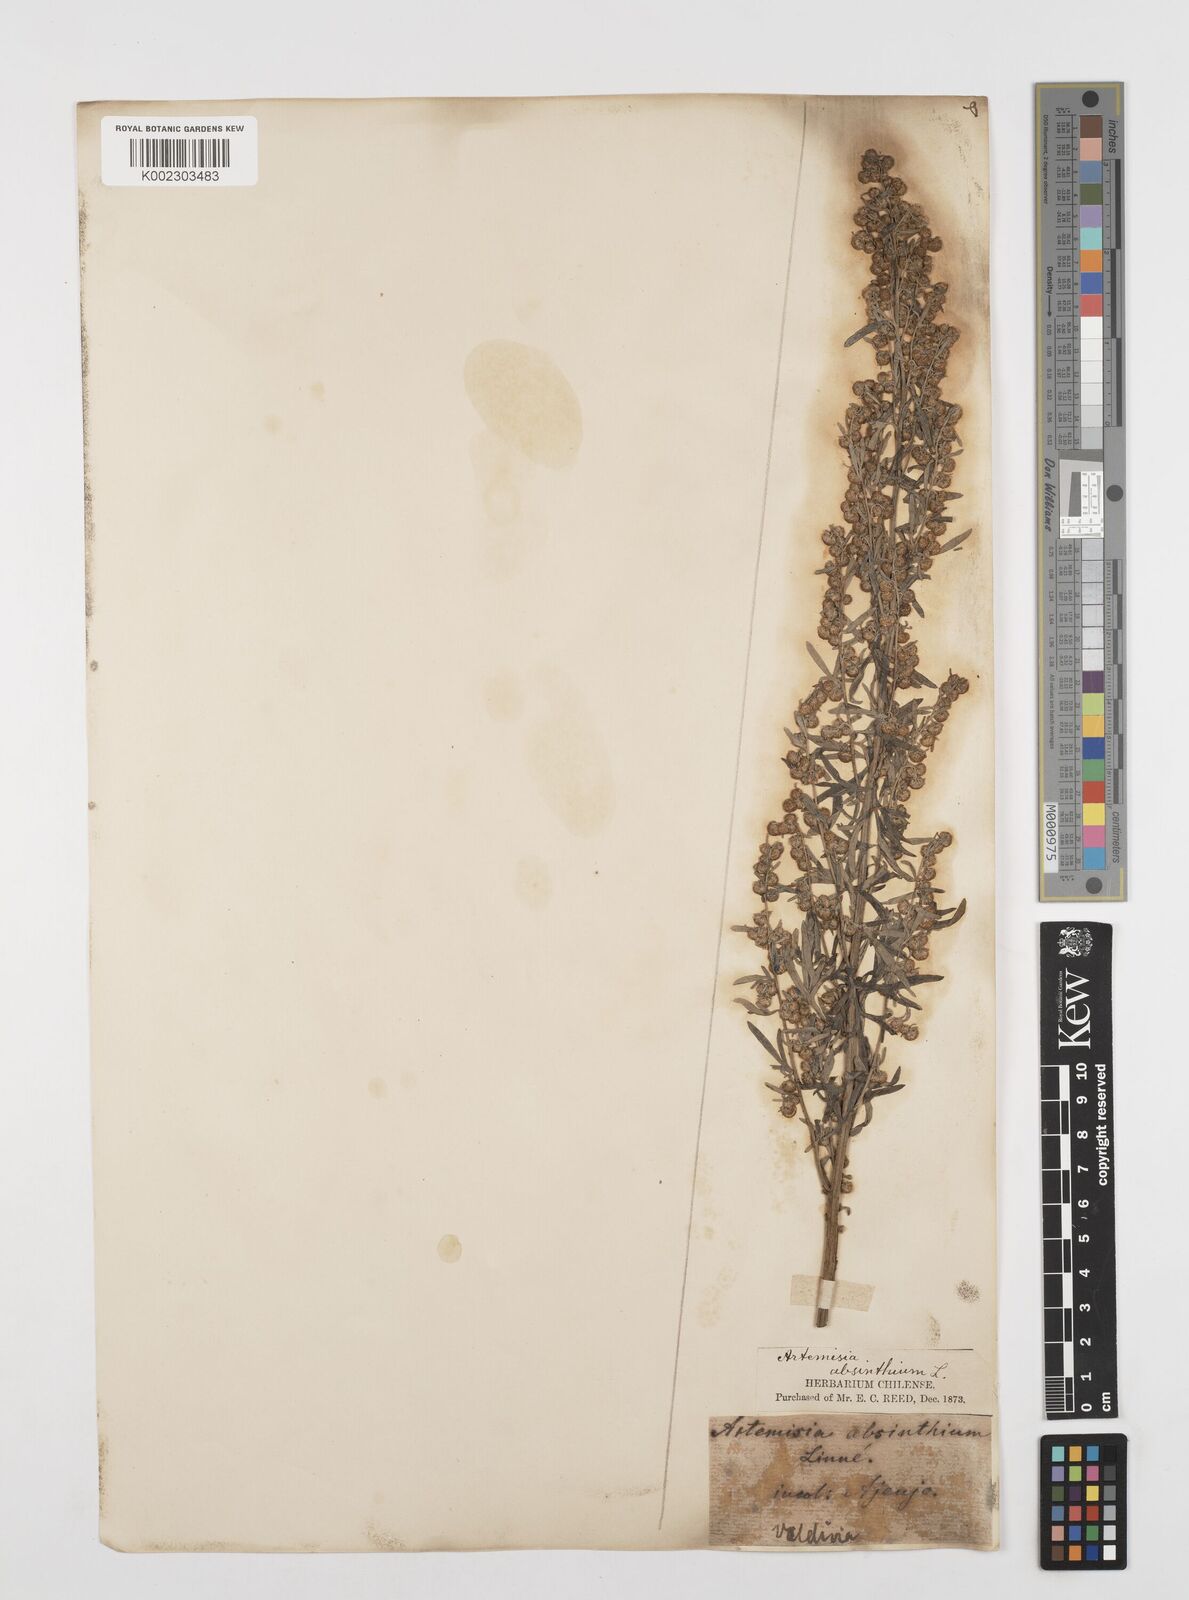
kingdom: Plantae
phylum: Tracheophyta
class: Magnoliopsida
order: Asterales
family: Asteraceae
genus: Artemisia
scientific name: Artemisia absinthium
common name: Wormwood
